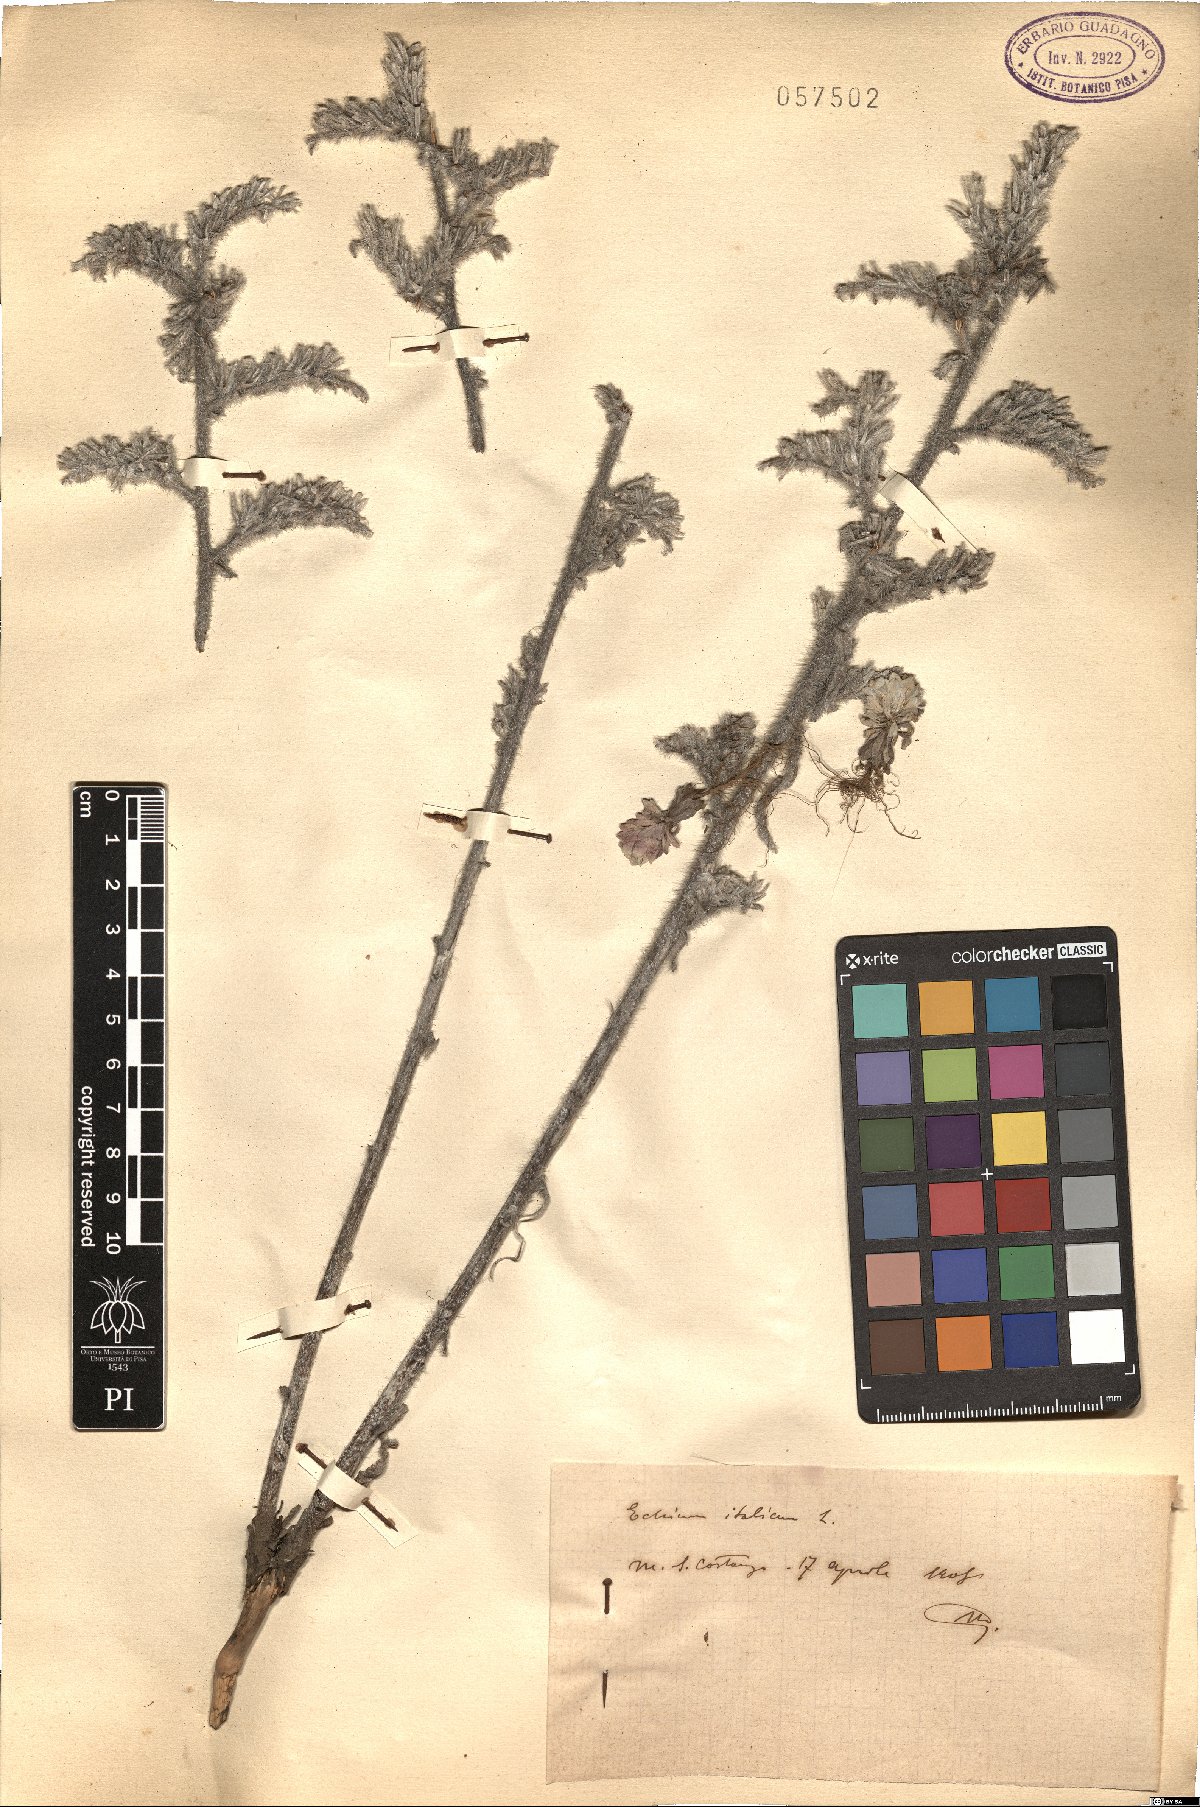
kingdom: Plantae
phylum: Tracheophyta
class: Magnoliopsida
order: Boraginales
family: Boraginaceae
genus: Echium
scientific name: Echium italicum
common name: Italian viper's bugloss
